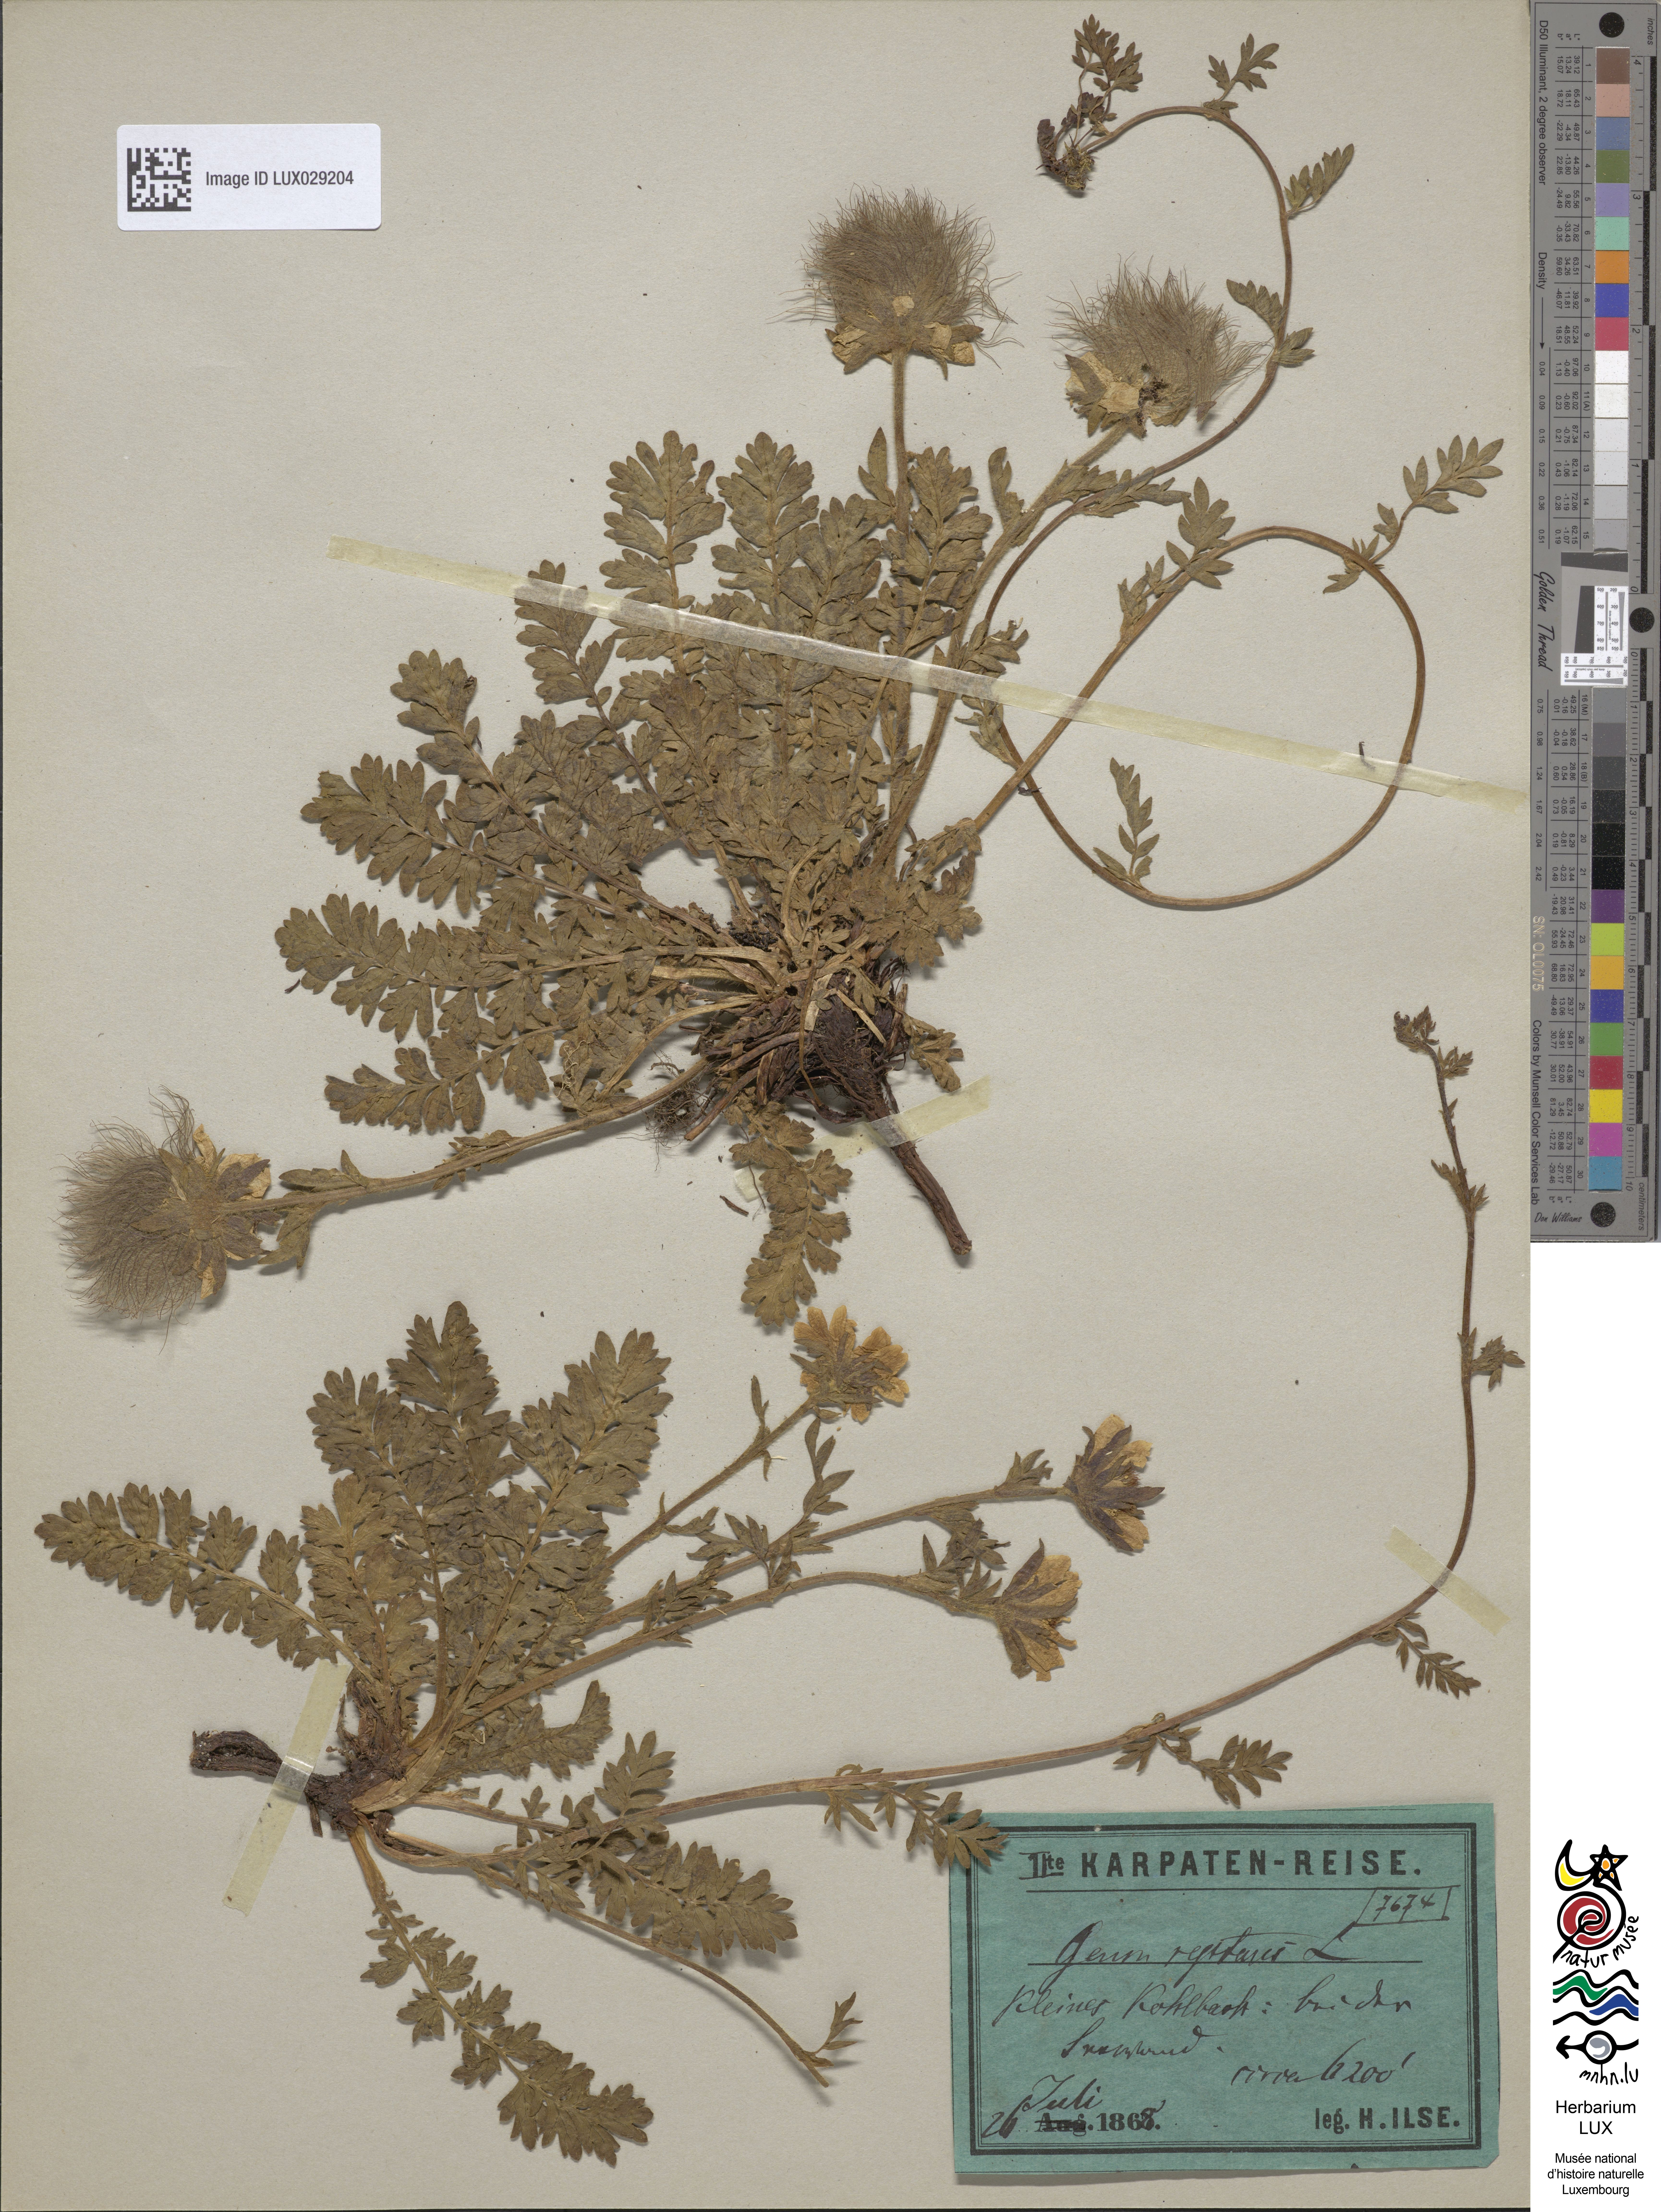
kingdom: Plantae
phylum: Tracheophyta
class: Magnoliopsida
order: Rosales
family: Rosaceae
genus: Geum
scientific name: Geum reptans
